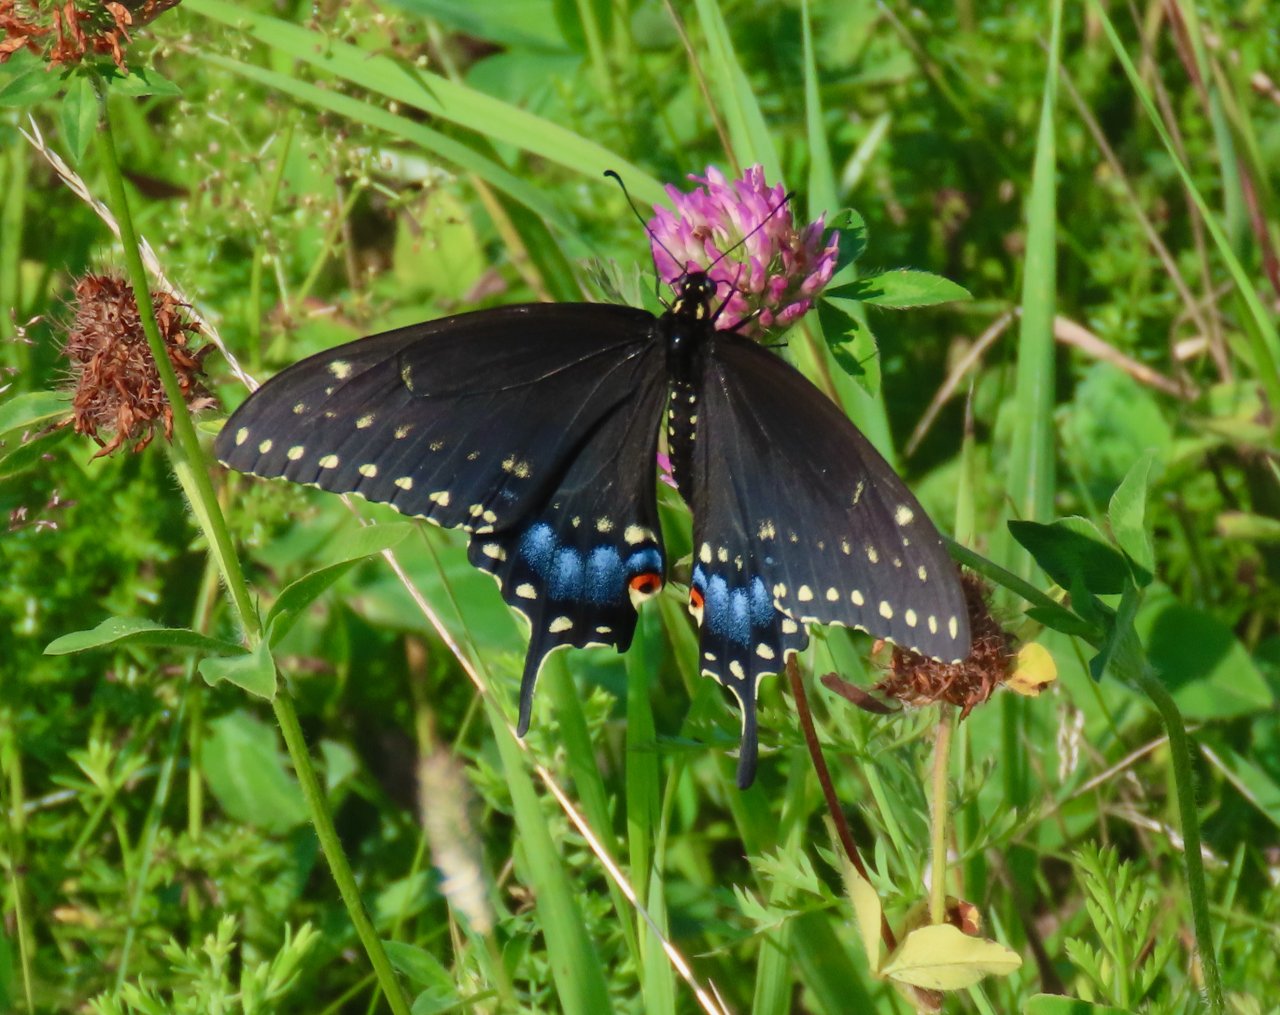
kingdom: Animalia
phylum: Arthropoda
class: Insecta
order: Lepidoptera
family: Papilionidae
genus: Papilio
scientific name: Papilio polyxenes
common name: Black Swallowtail
